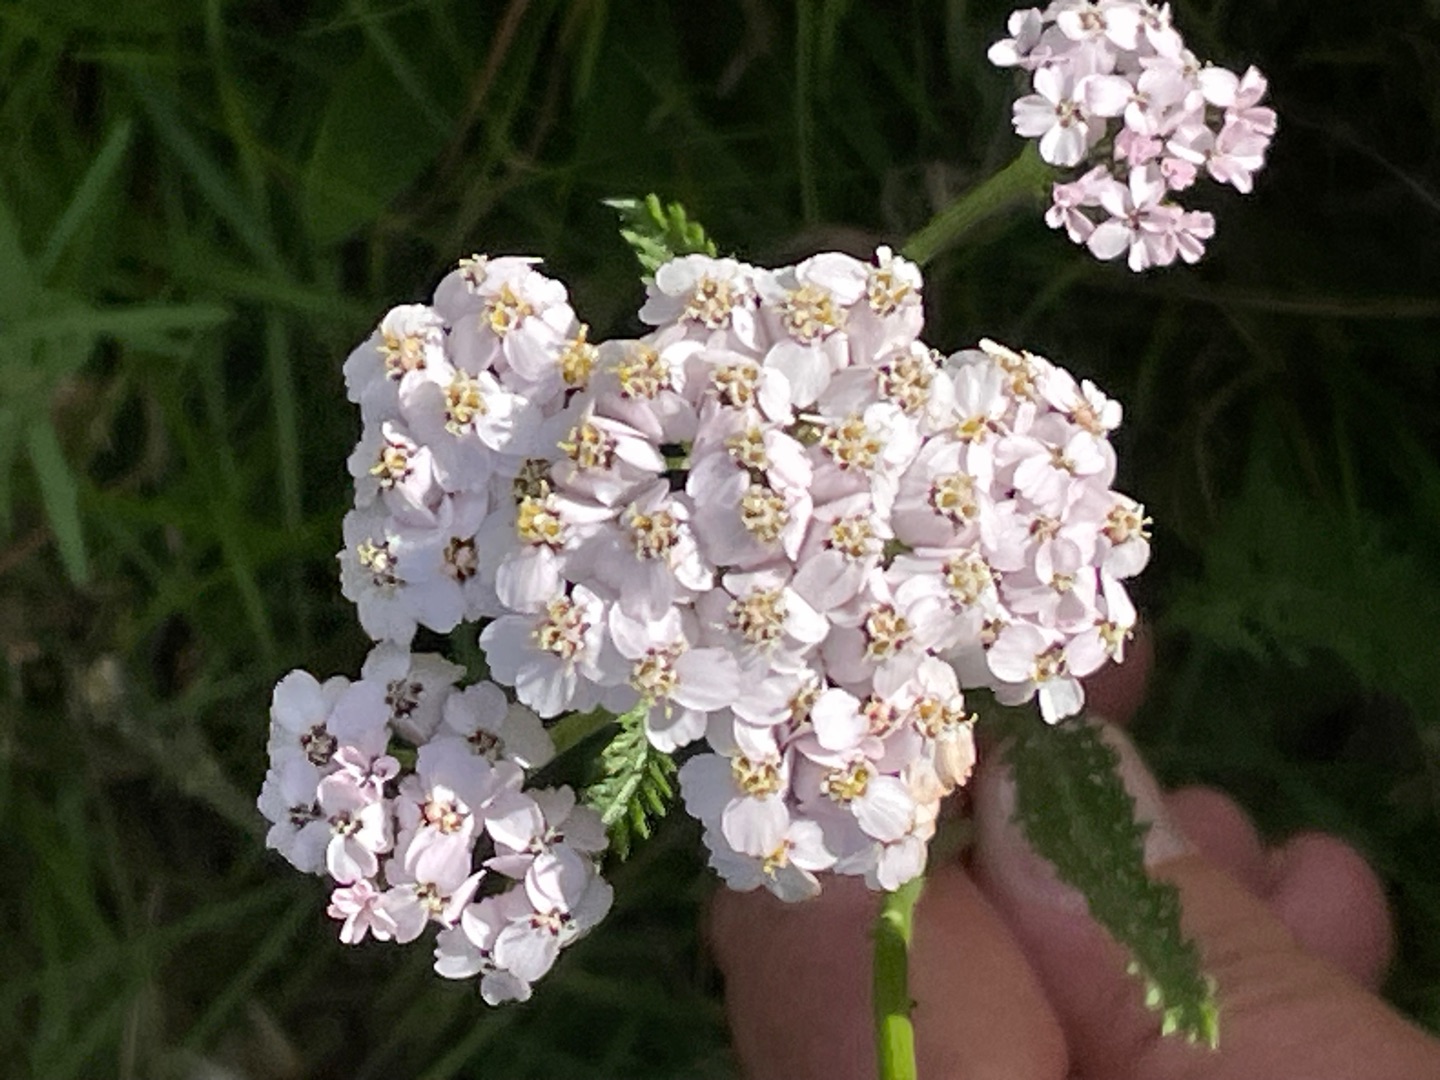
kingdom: Plantae
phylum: Tracheophyta
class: Magnoliopsida
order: Asterales
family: Asteraceae
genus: Achillea
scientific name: Achillea millefolium
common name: Almindelig røllike
